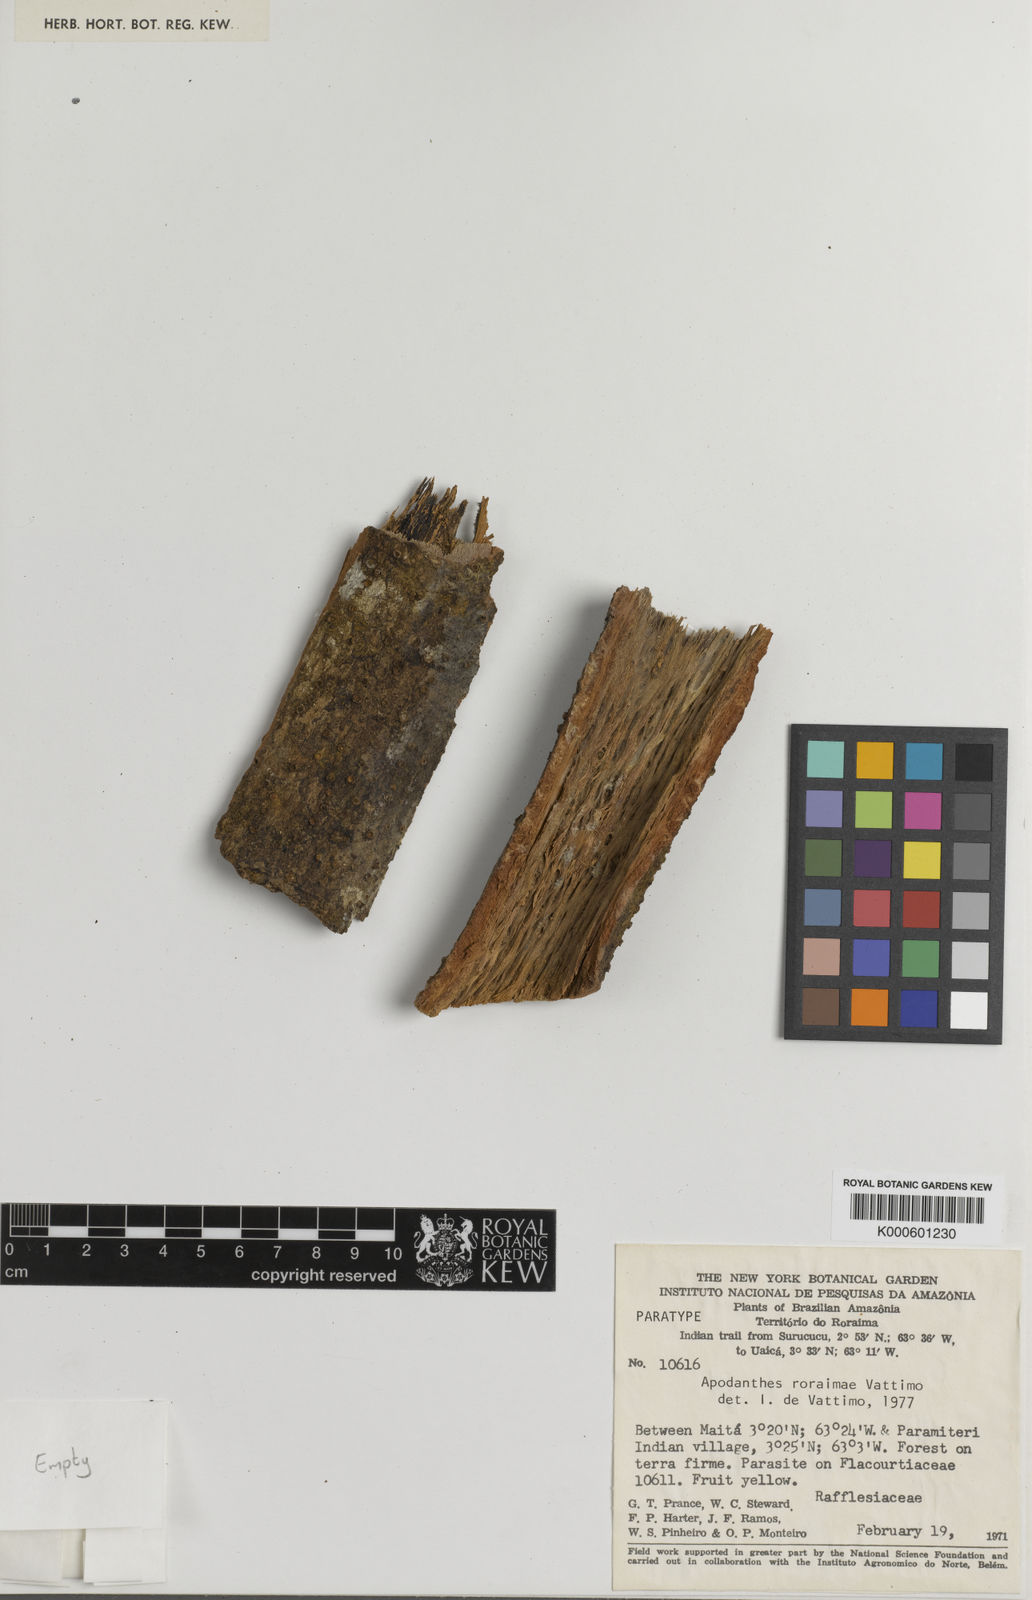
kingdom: Plantae
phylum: Tracheophyta
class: Magnoliopsida
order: Cucurbitales
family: Apodanthaceae
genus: Apodanthes
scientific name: Apodanthes caseariae
